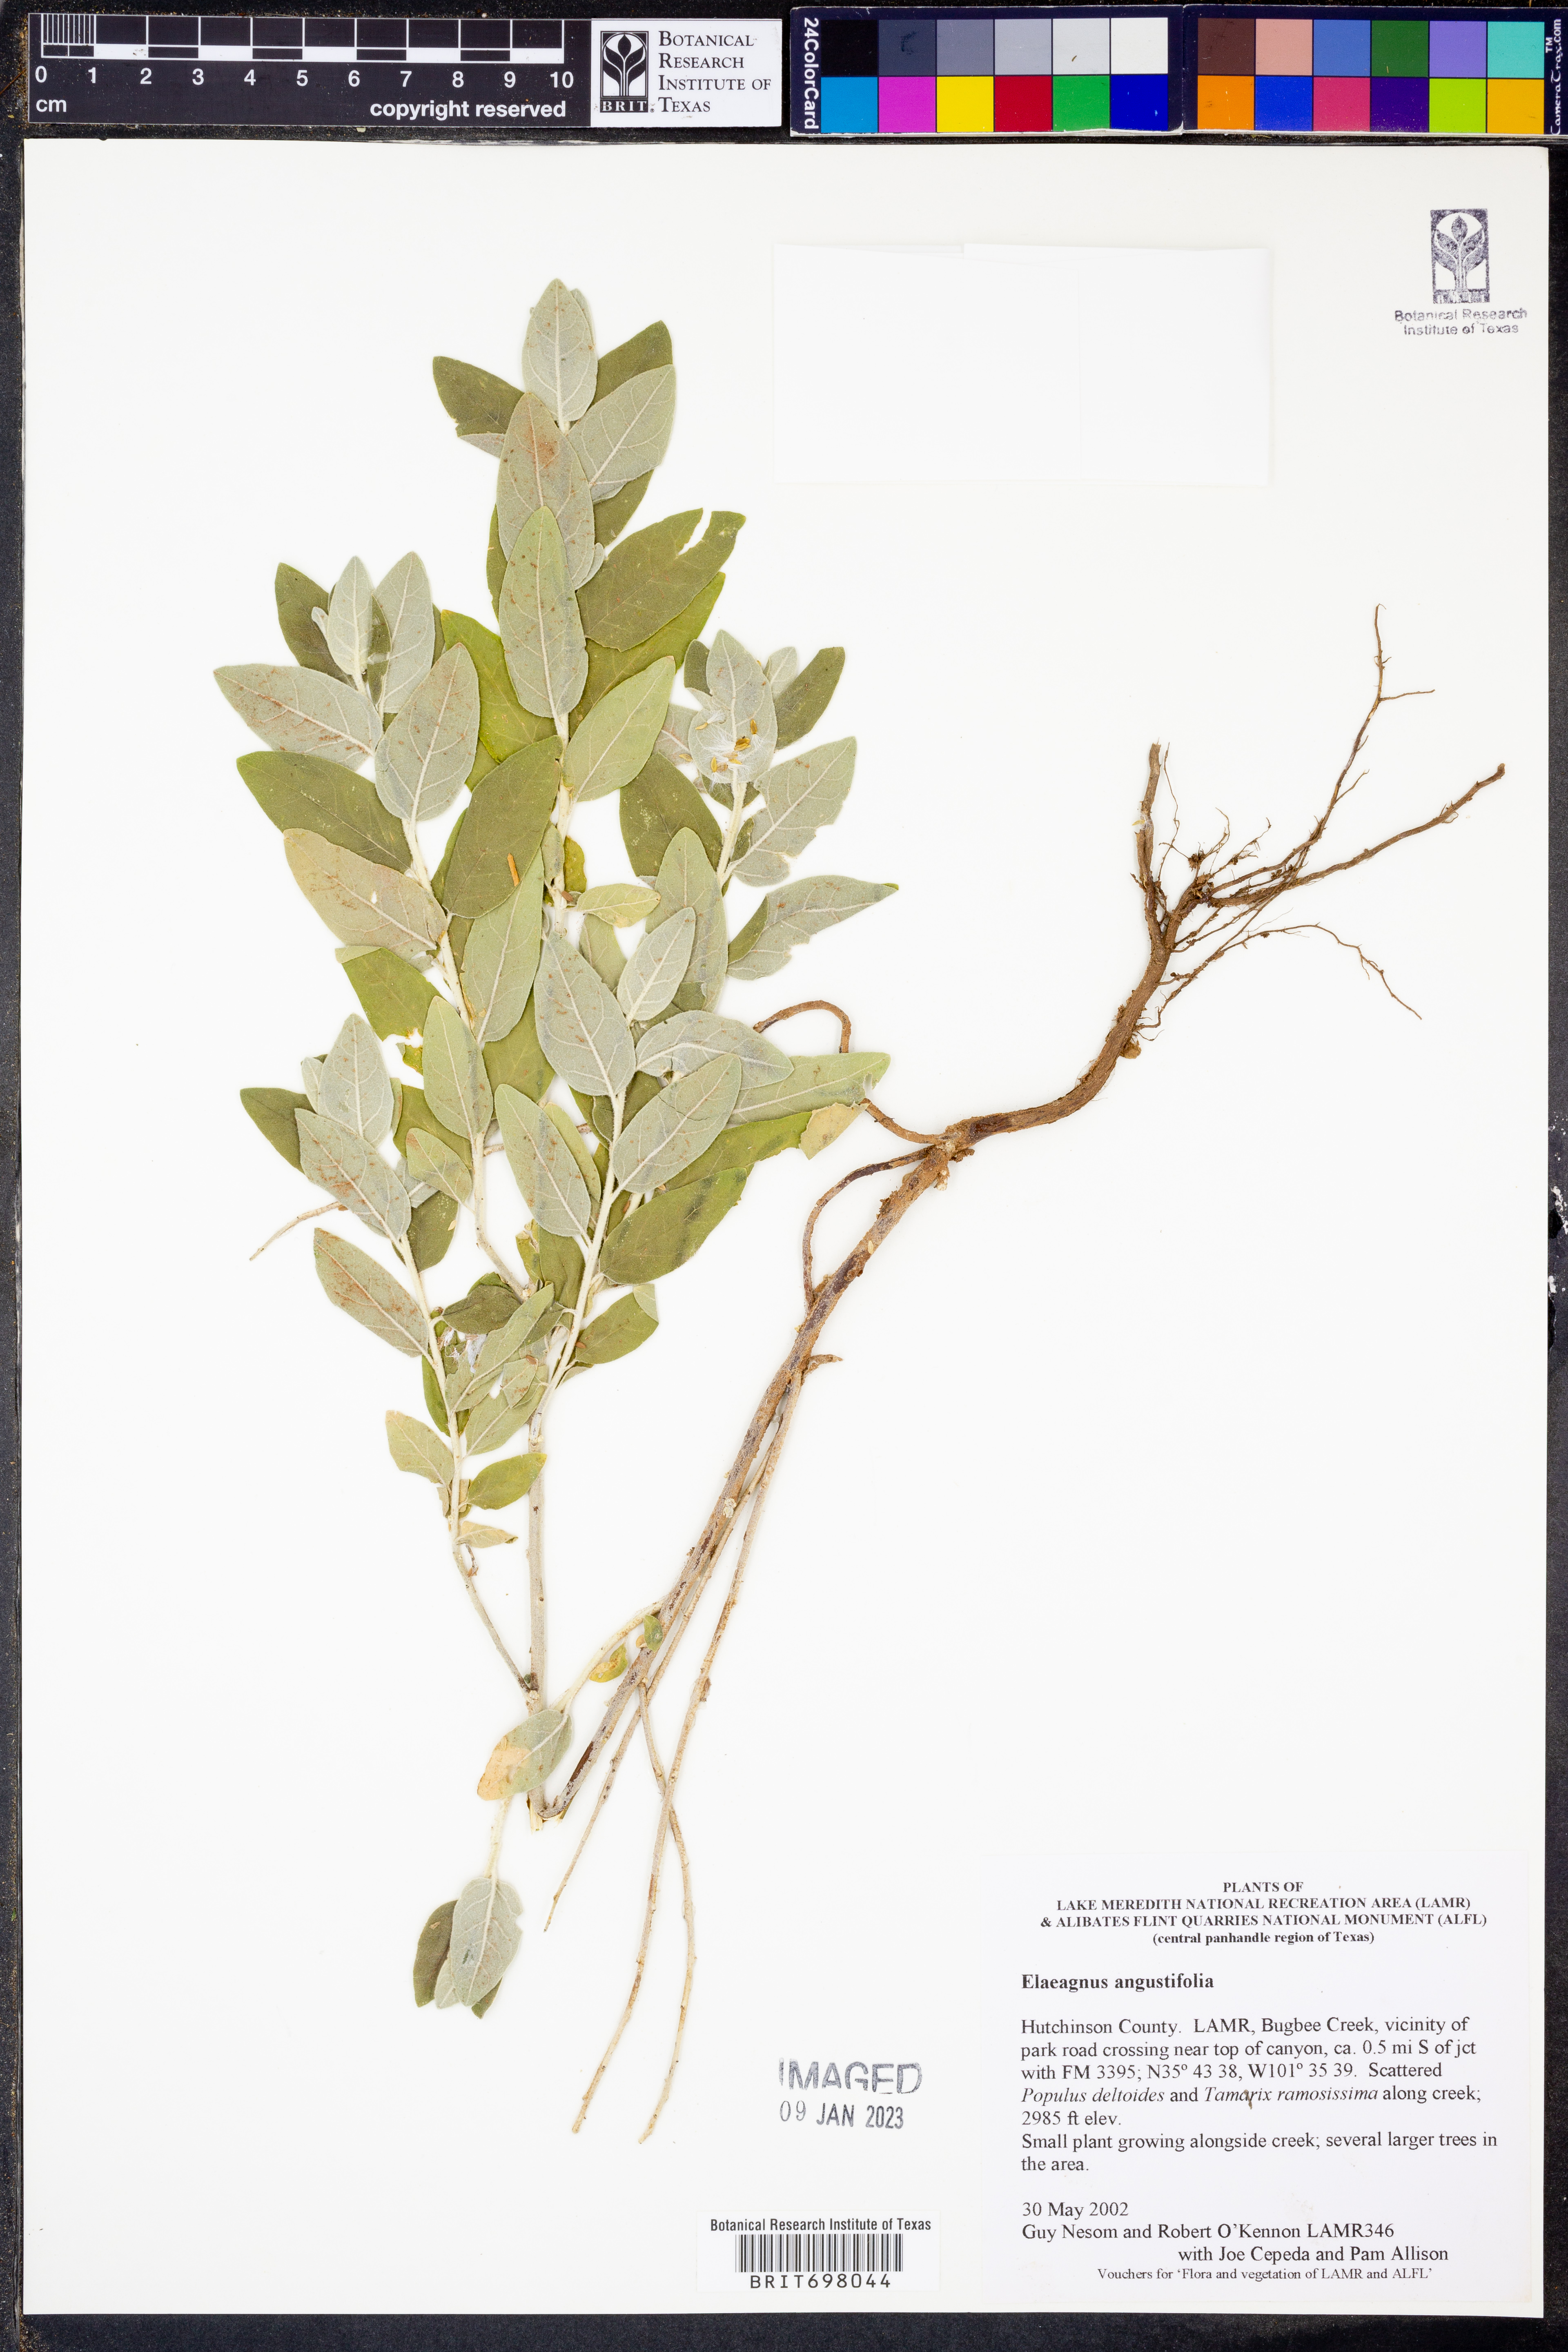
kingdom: Plantae
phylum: Tracheophyta
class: Magnoliopsida
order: Rosales
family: Elaeagnaceae
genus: Elaeagnus
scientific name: Elaeagnus angustifolia
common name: Russian olive
